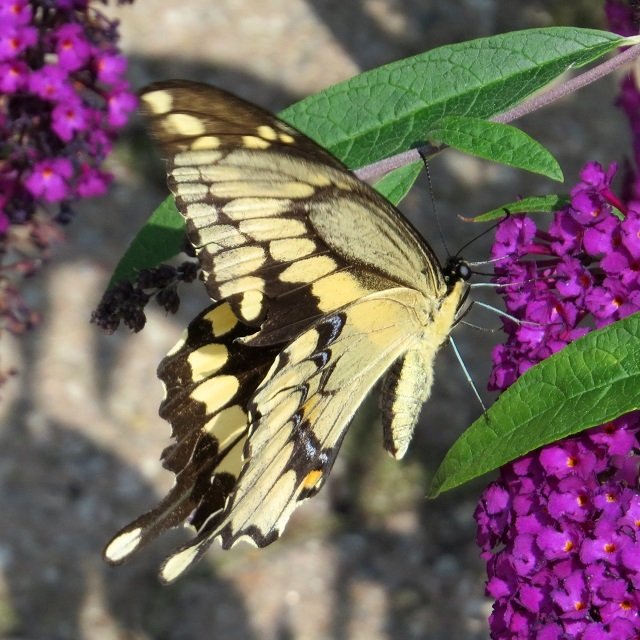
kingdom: Animalia
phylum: Arthropoda
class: Insecta
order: Lepidoptera
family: Papilionidae
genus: Papilio
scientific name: Papilio cresphontes
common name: Eastern Giant Swallowtail
